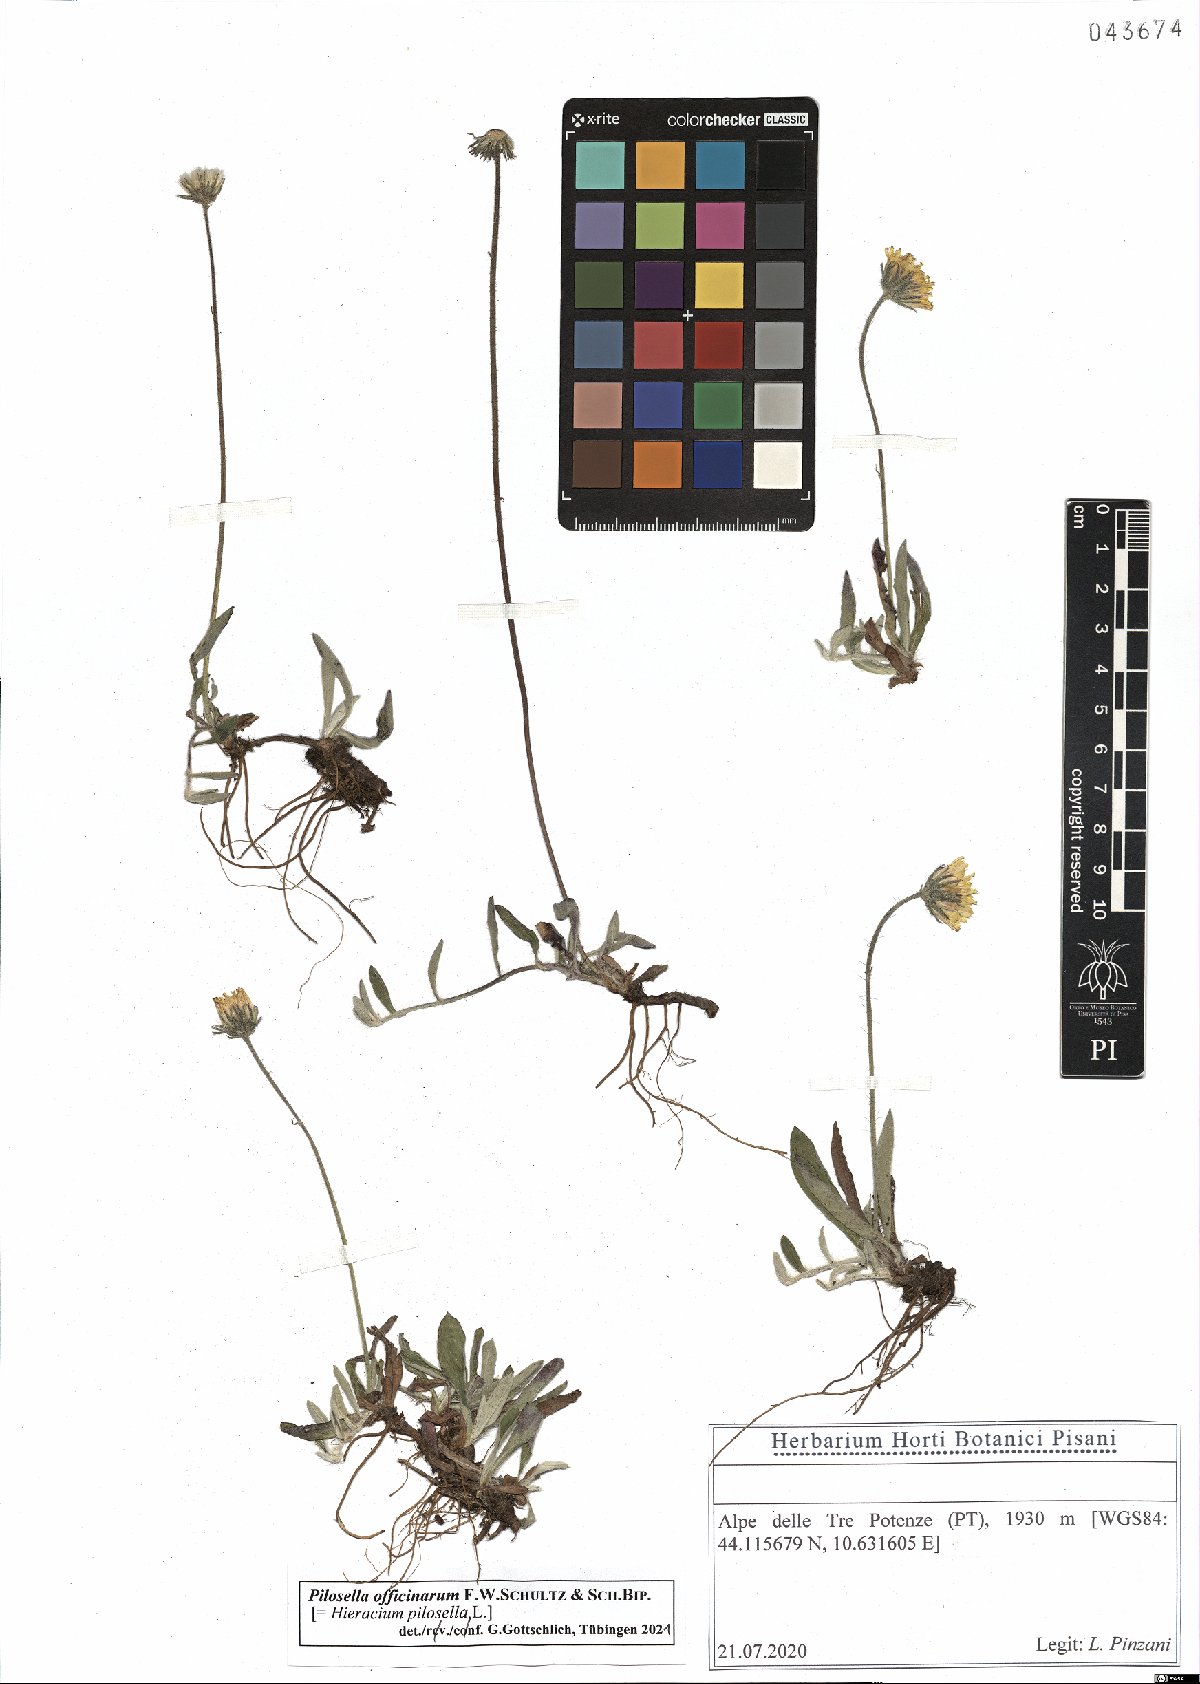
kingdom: Plantae
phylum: Tracheophyta
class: Magnoliopsida
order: Asterales
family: Asteraceae
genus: Pilosella
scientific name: Pilosella officinarum
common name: Mouse-ear hawkweed
